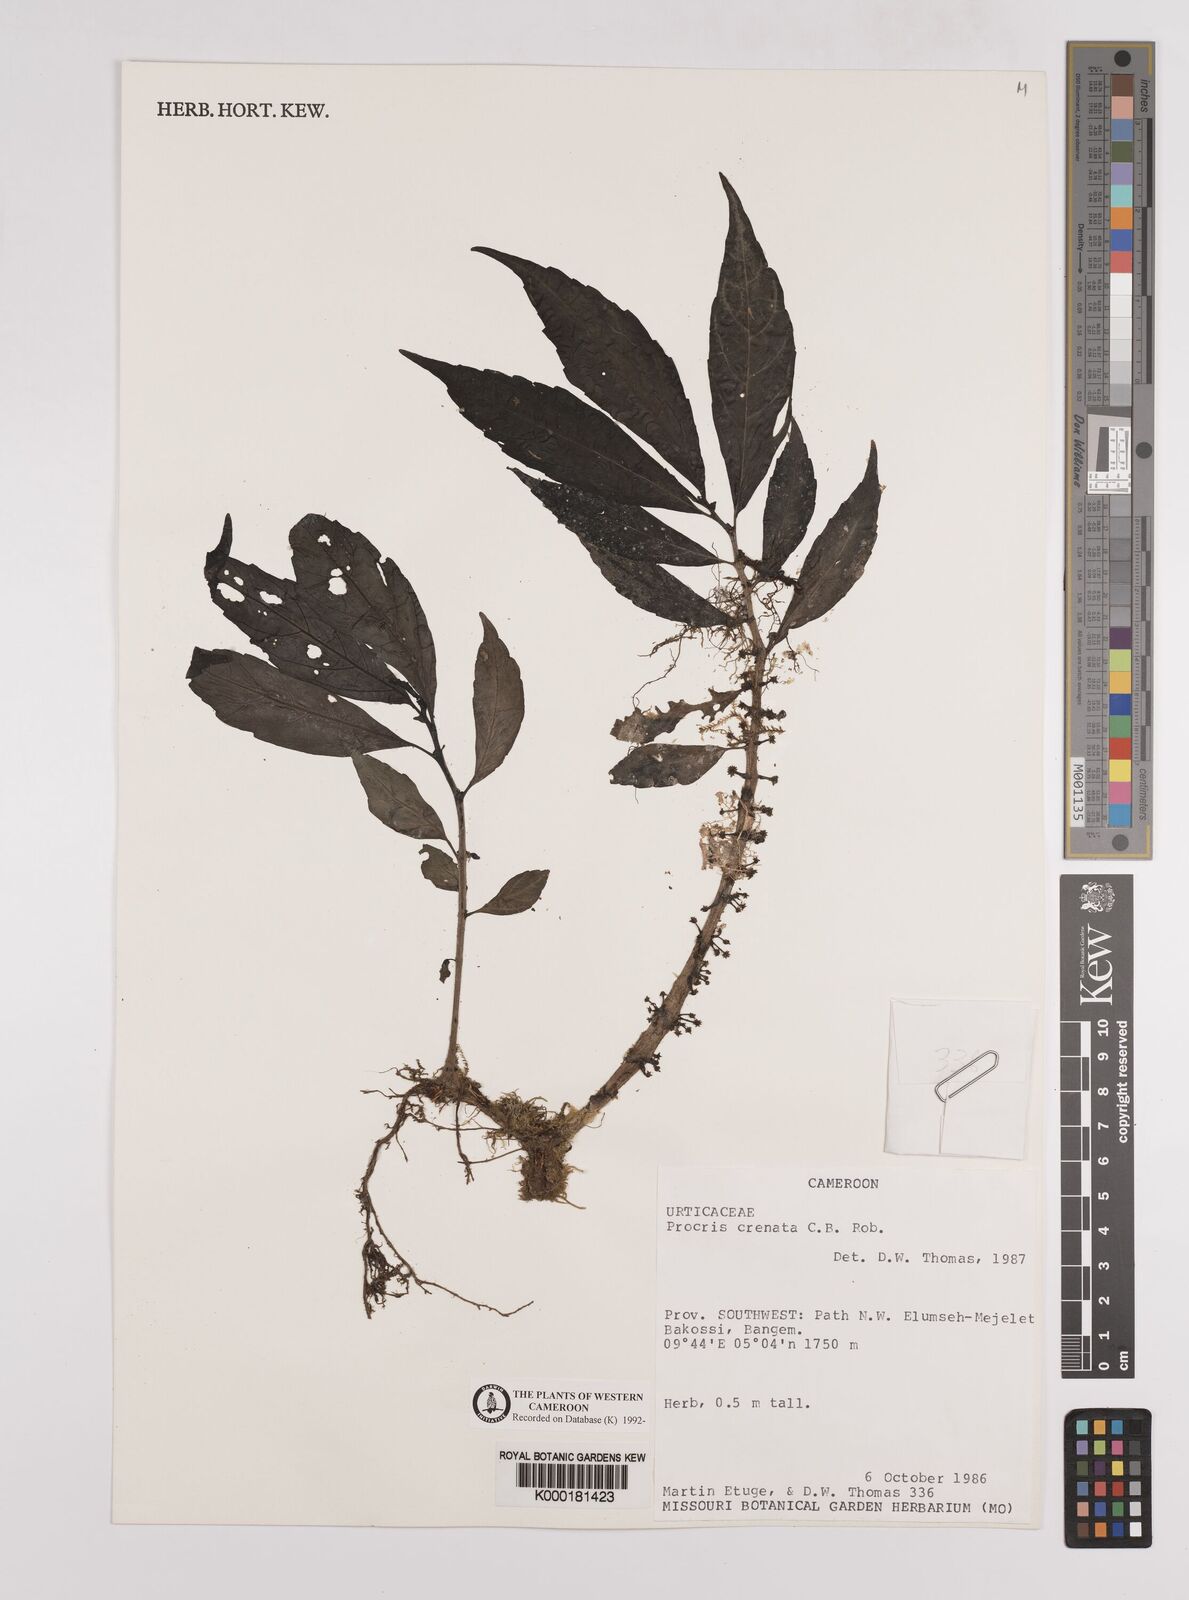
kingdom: Plantae
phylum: Tracheophyta
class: Magnoliopsida
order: Rosales
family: Urticaceae
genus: Procris
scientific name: Procris crenata
